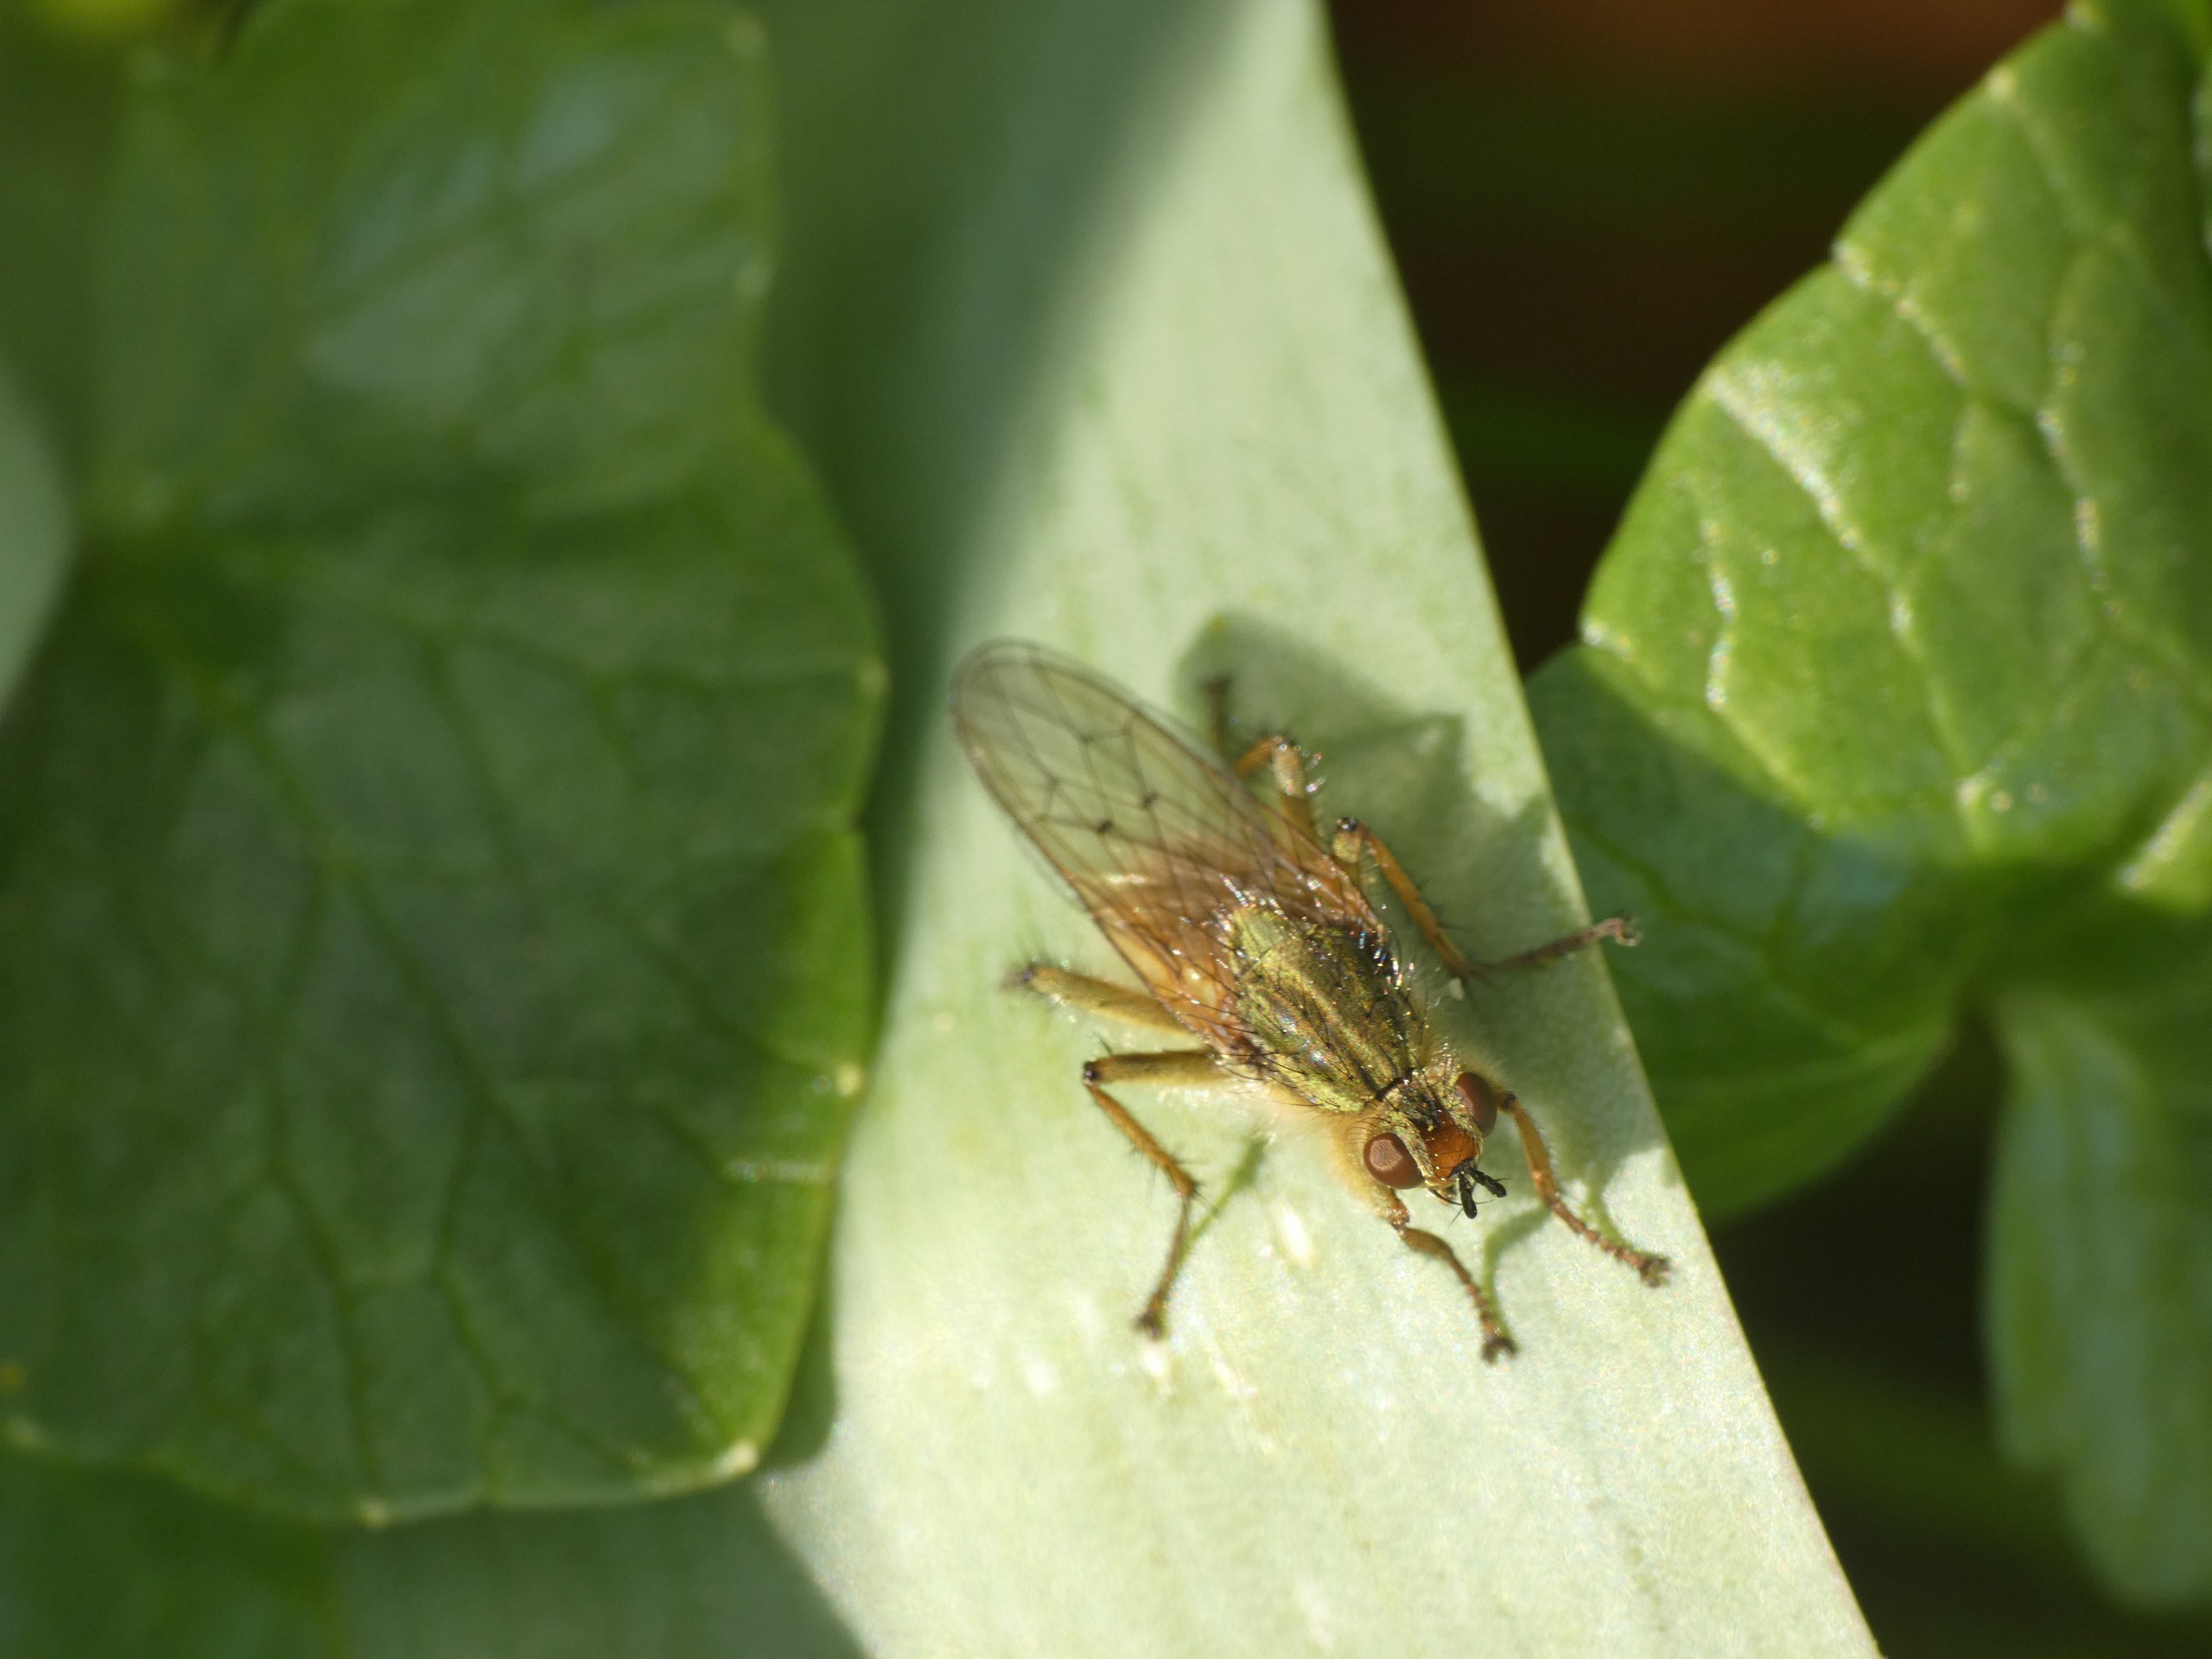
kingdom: Animalia
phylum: Arthropoda
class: Insecta
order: Diptera
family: Scathophagidae
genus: Scathophaga
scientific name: Scathophaga stercoraria
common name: Almindelig gødningsflue
